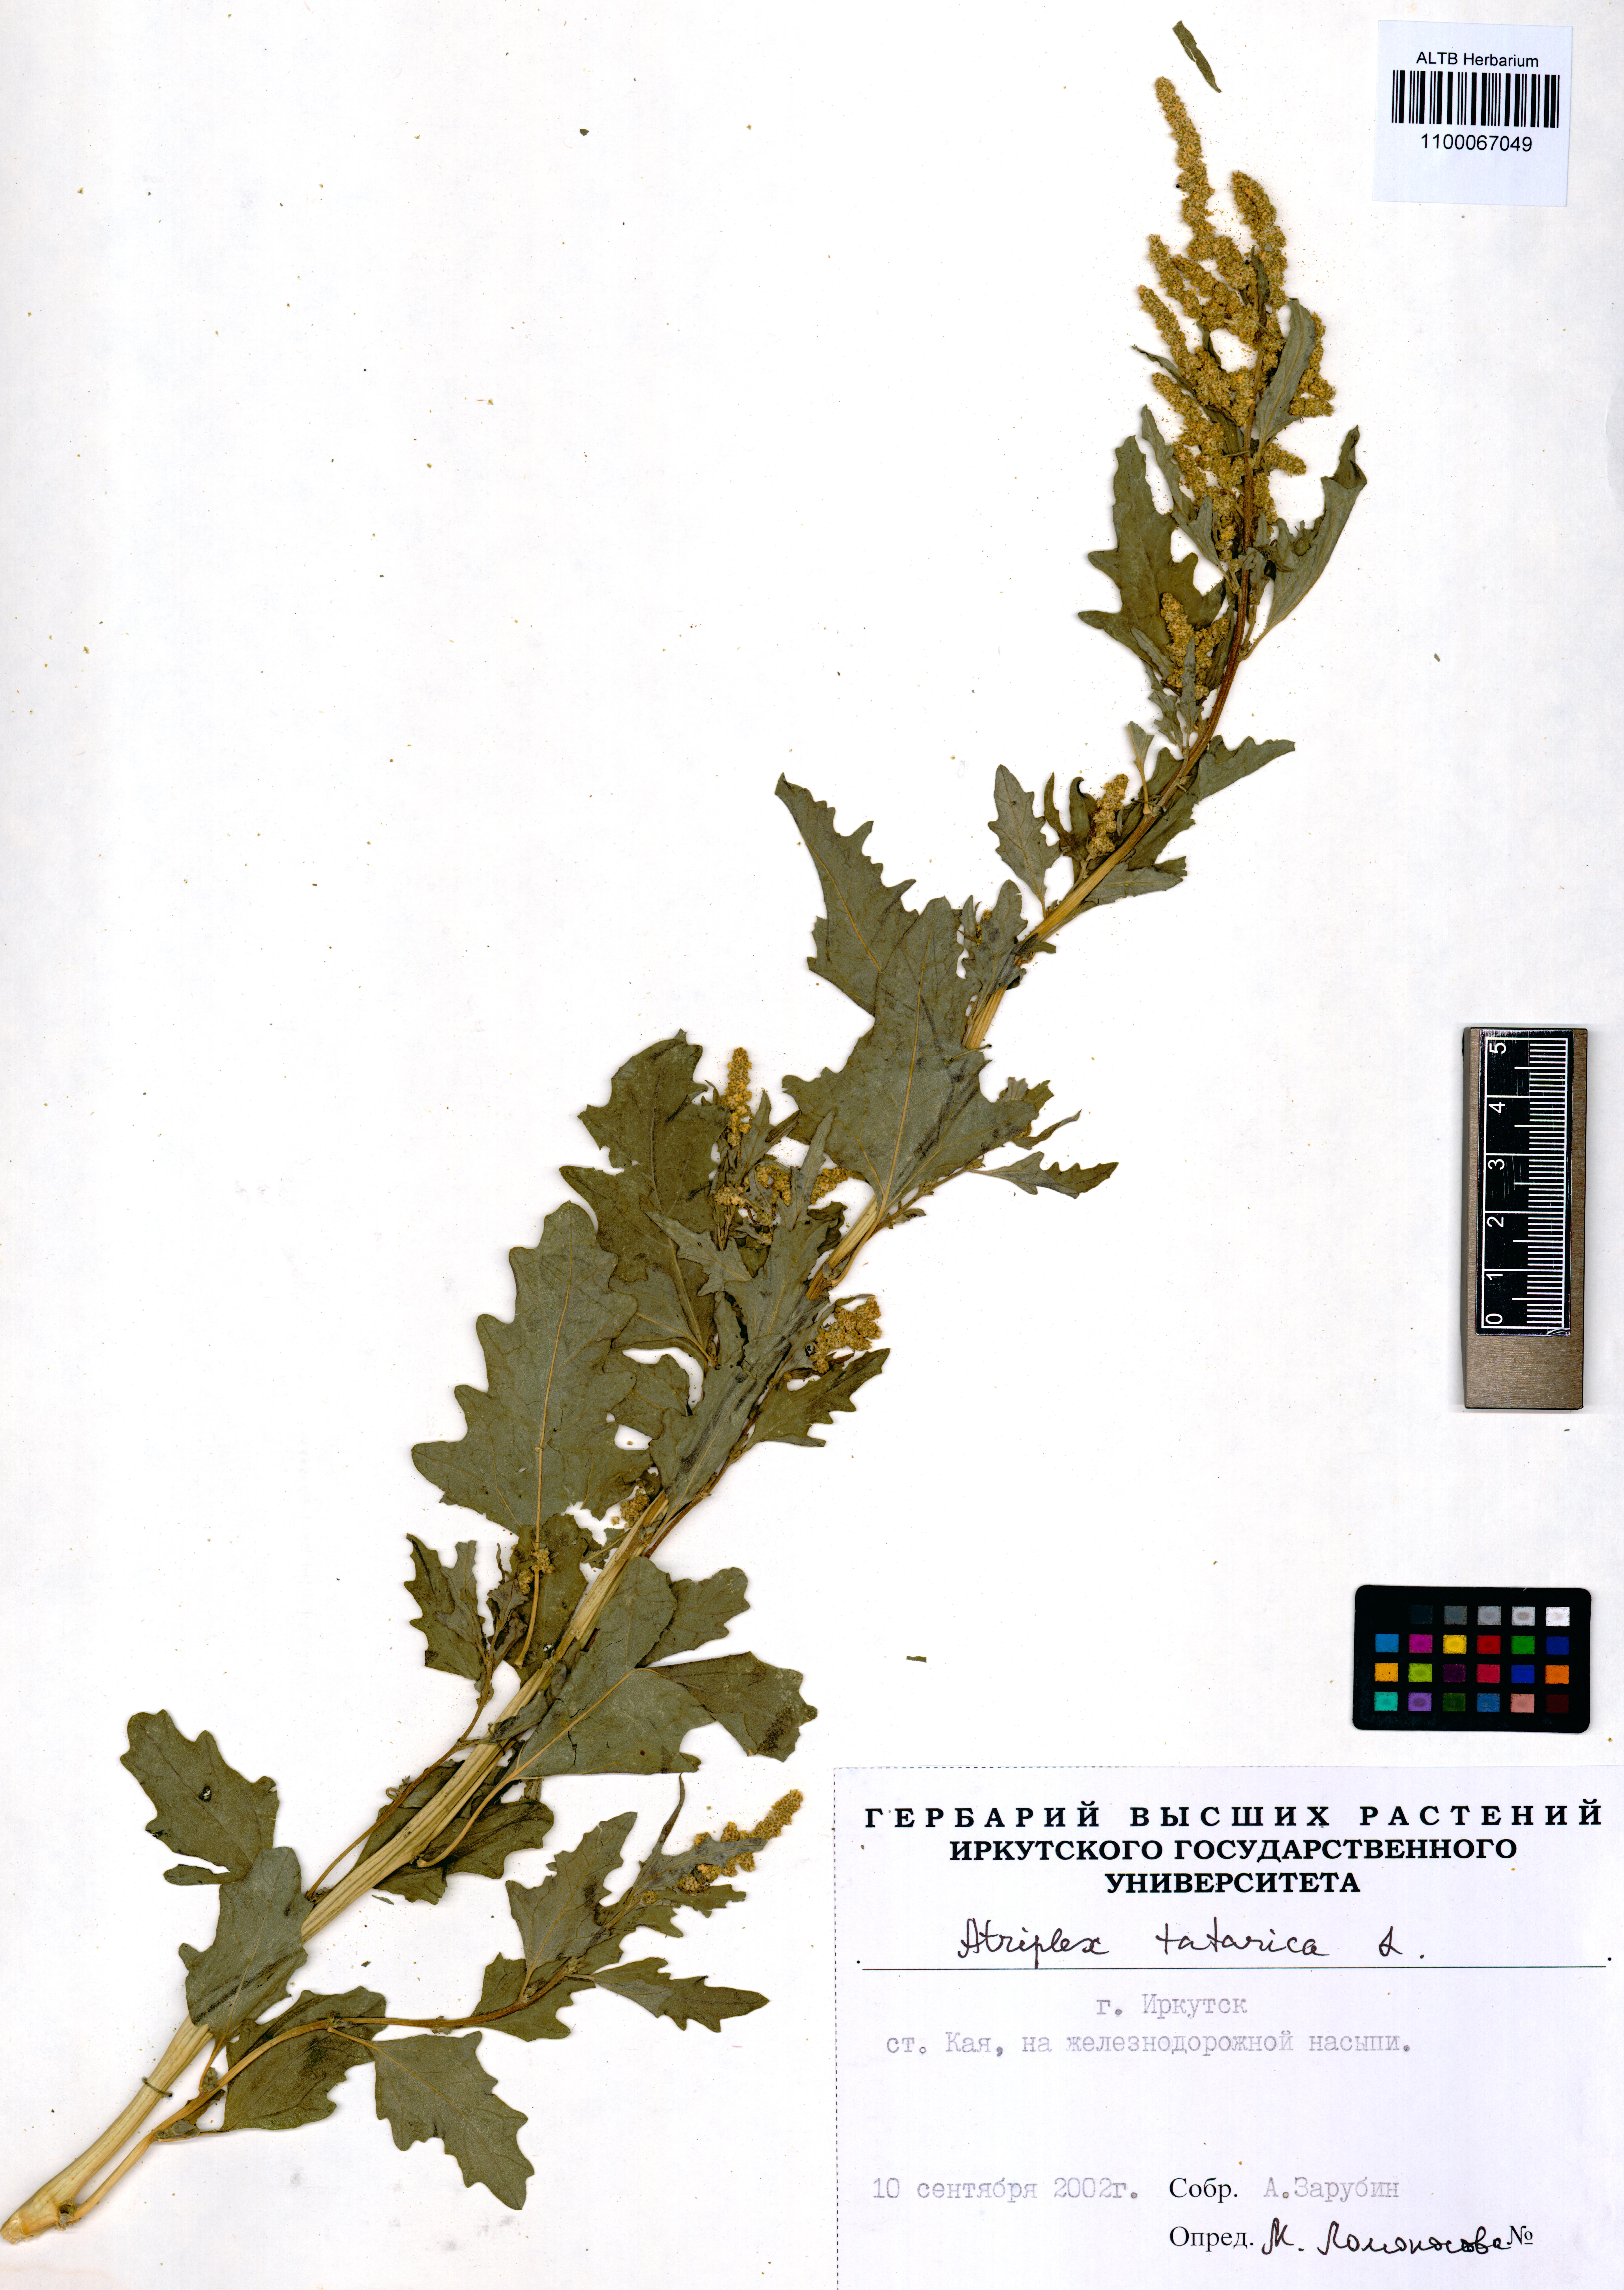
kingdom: Plantae
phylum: Tracheophyta
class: Magnoliopsida
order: Caryophyllales
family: Amaranthaceae
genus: Atriplex
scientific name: Atriplex tatarica
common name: Tatarian orache
